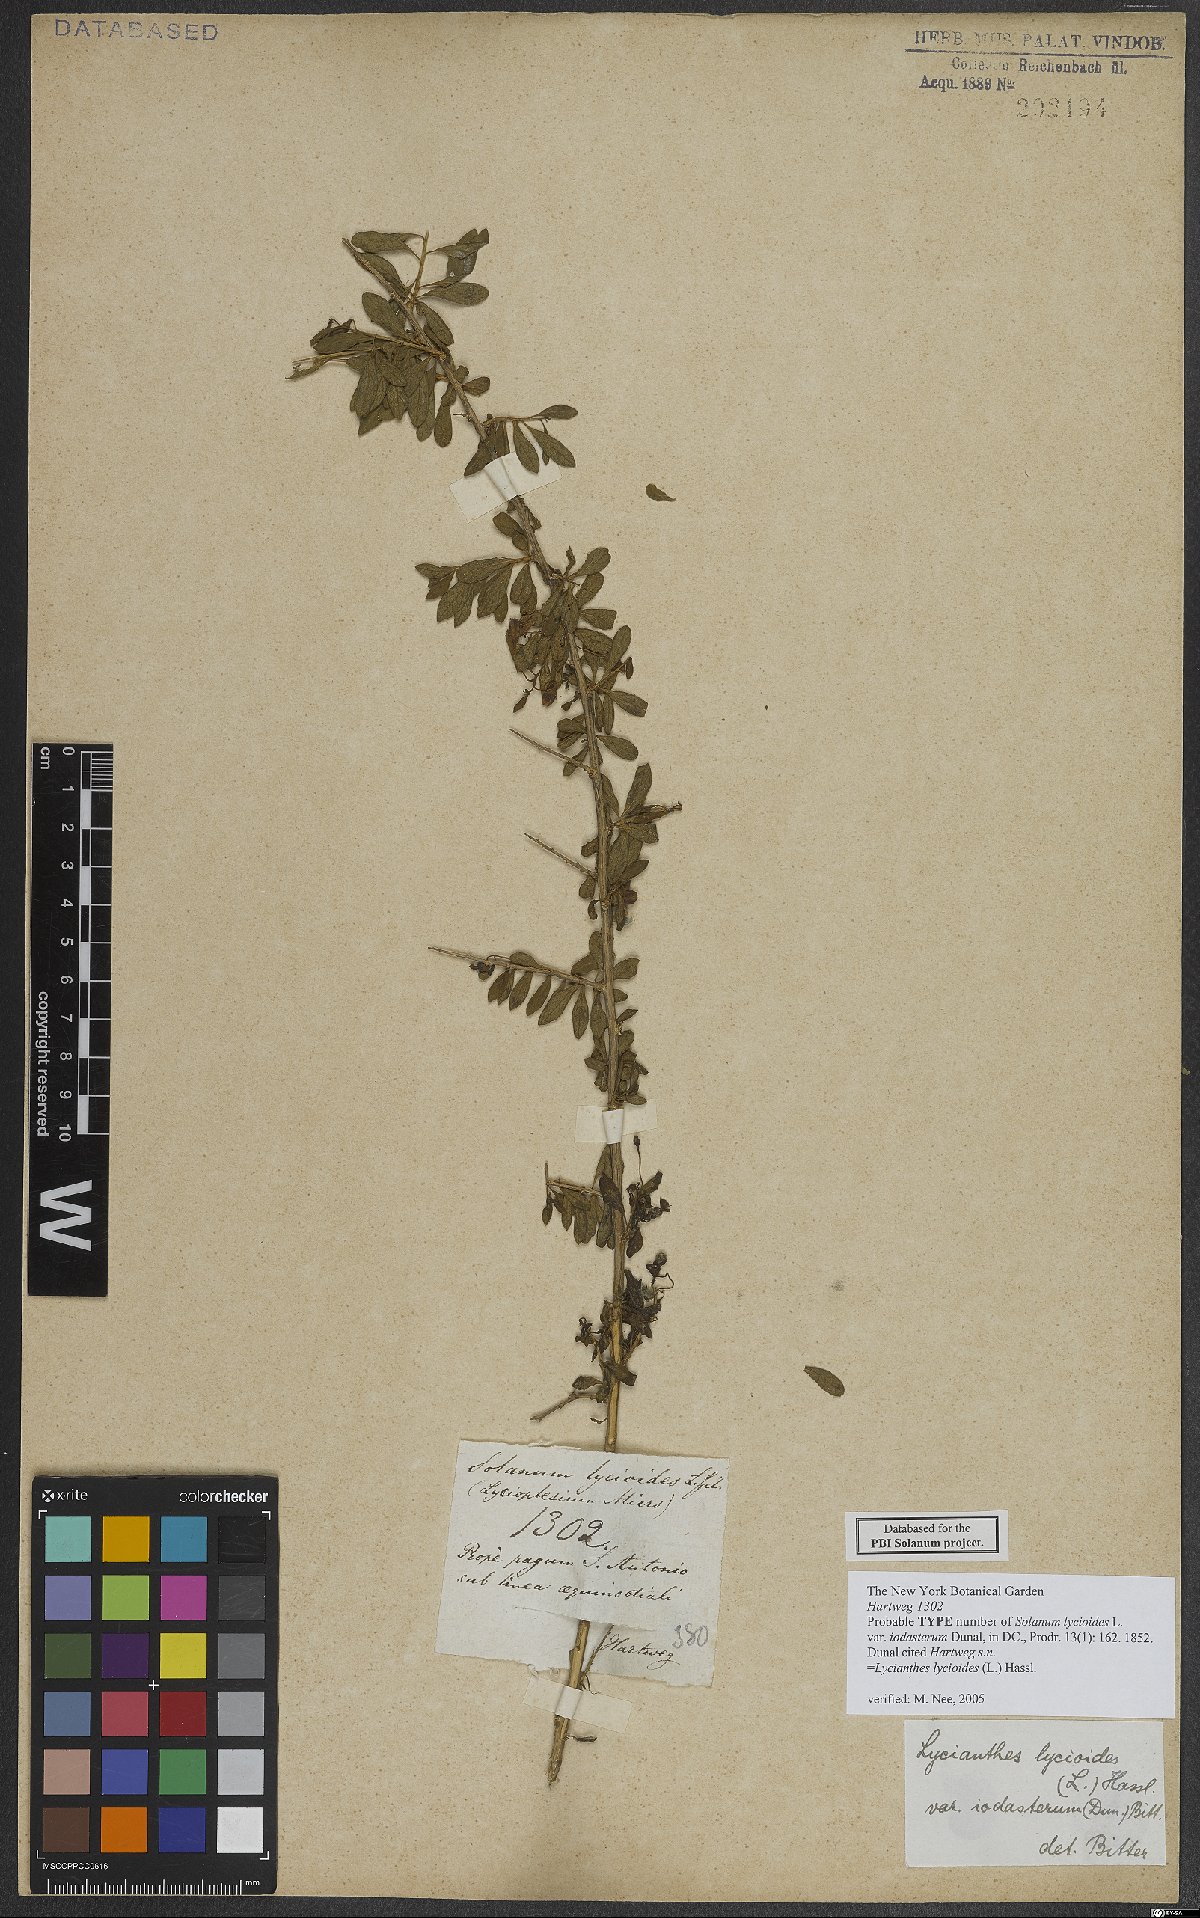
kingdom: Plantae
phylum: Tracheophyta
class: Magnoliopsida
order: Solanales
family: Solanaceae
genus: Lycianthes
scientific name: Lycianthes lycioides
